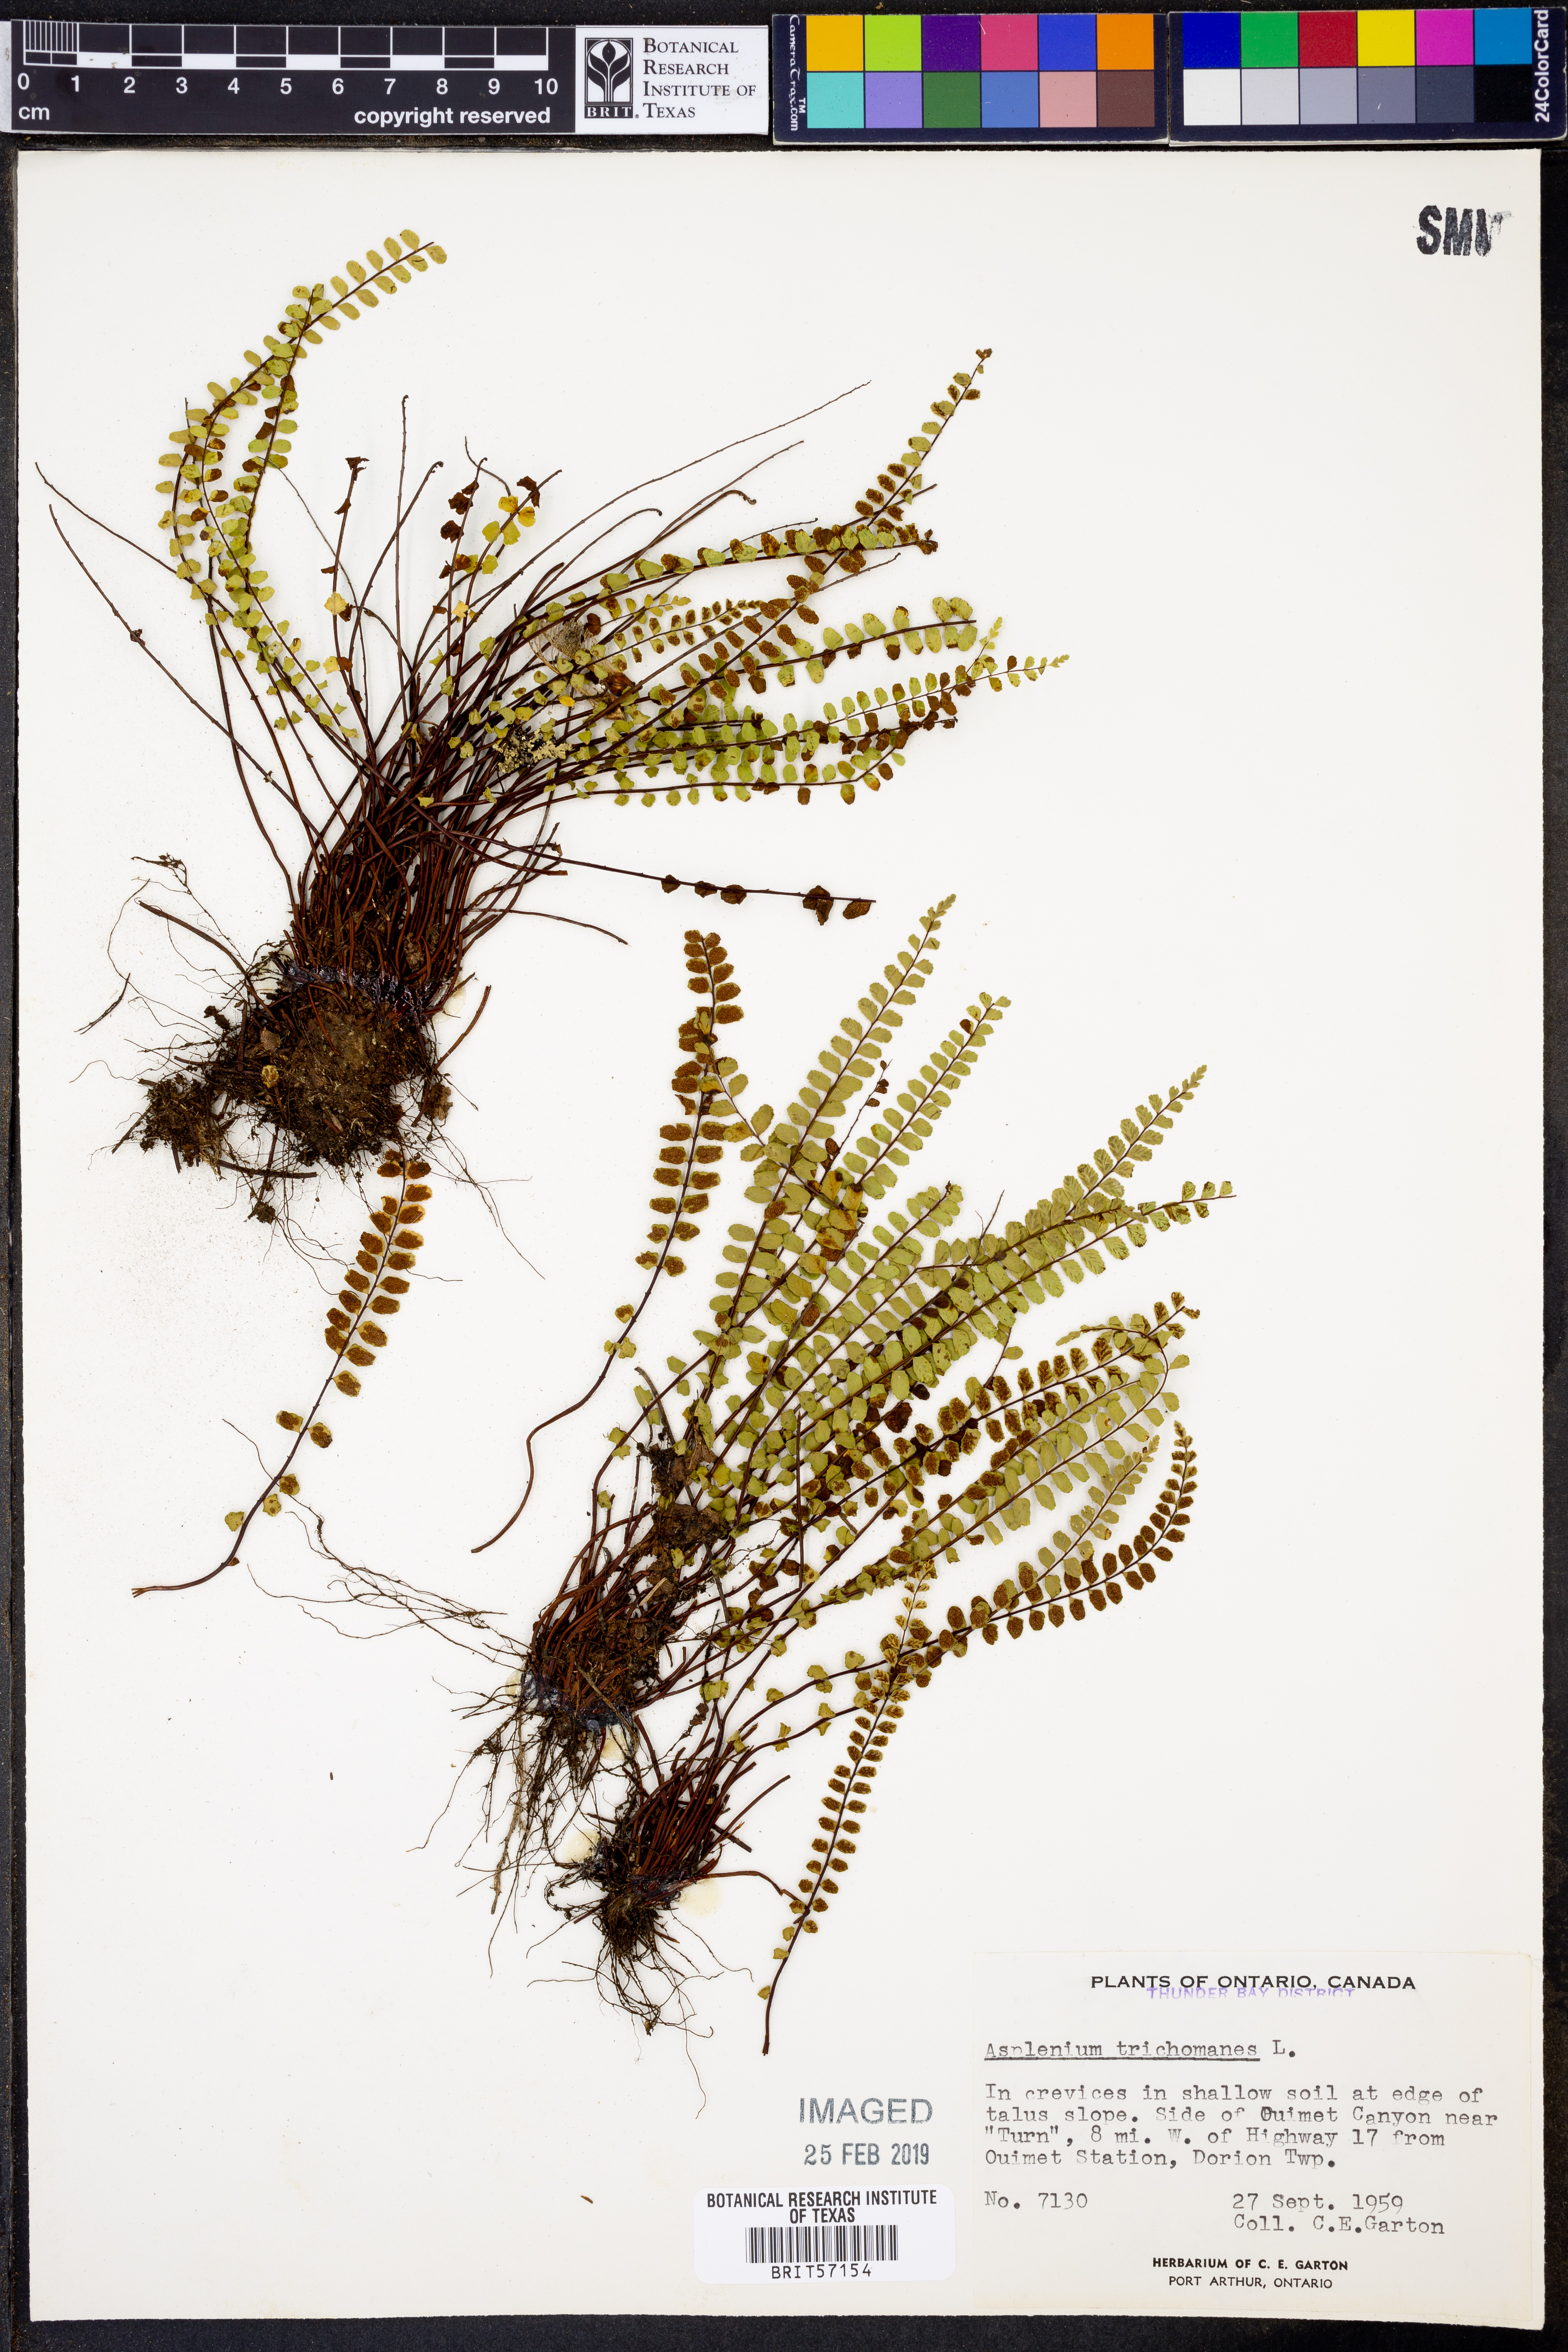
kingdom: Plantae
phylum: Tracheophyta
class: Polypodiopsida
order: Polypodiales
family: Aspleniaceae
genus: Asplenium
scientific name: Asplenium trichomanes
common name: Maidenhair spleenwort
